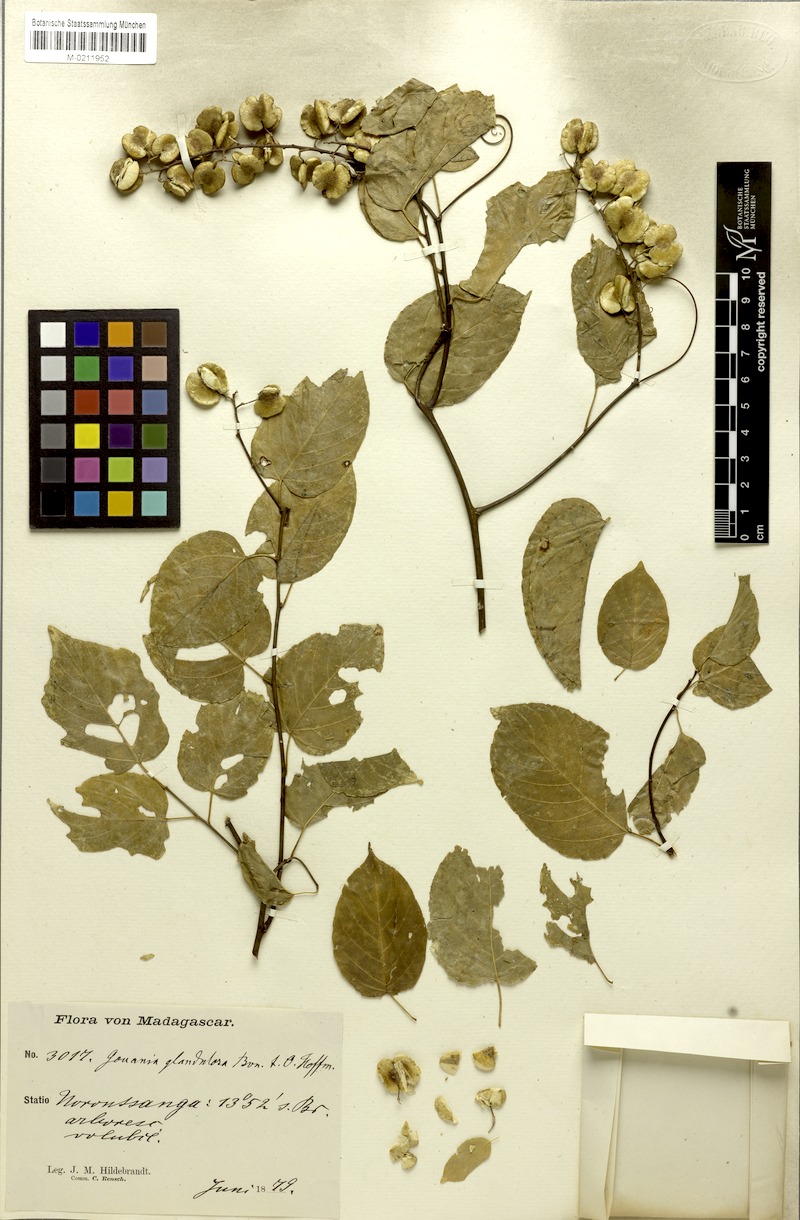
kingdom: Plantae
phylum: Tracheophyta
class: Magnoliopsida
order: Rosales
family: Rhamnaceae
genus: Gouania
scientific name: Gouania
